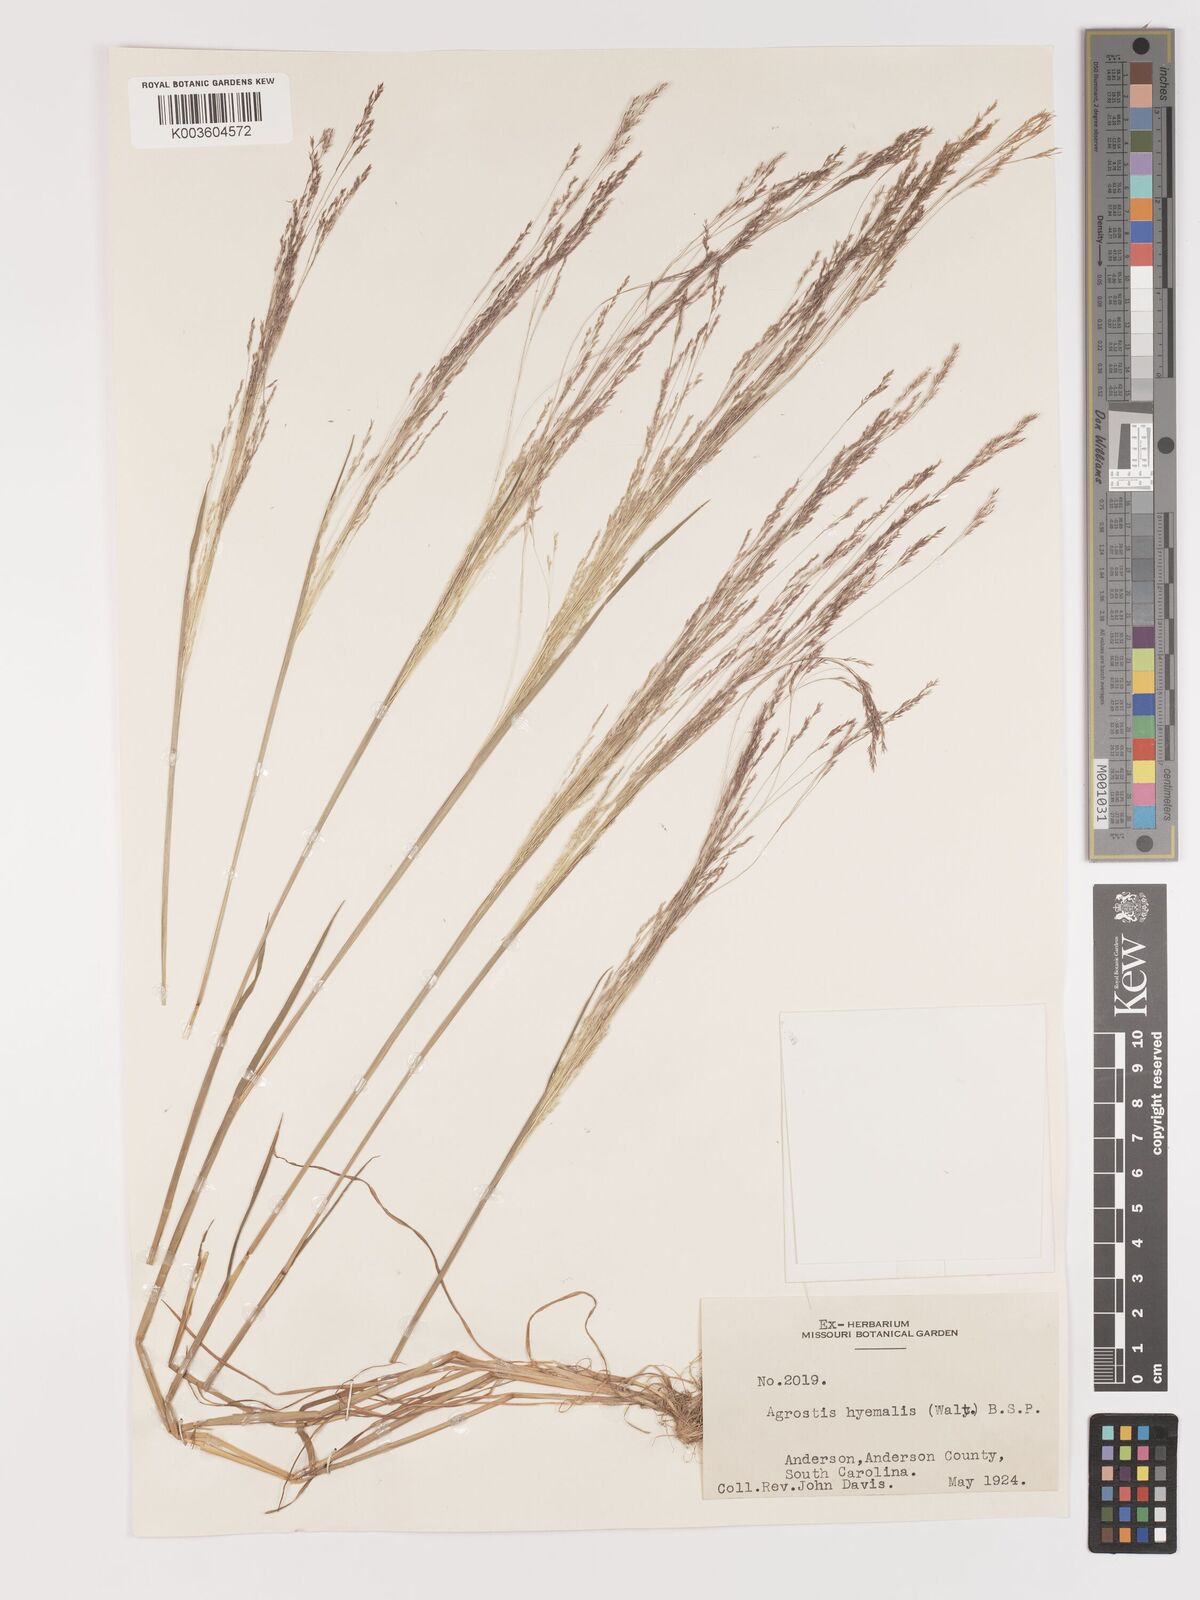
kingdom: Plantae
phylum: Tracheophyta
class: Liliopsida
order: Poales
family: Poaceae
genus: Agrostis
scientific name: Agrostis hyemalis
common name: Small bent
